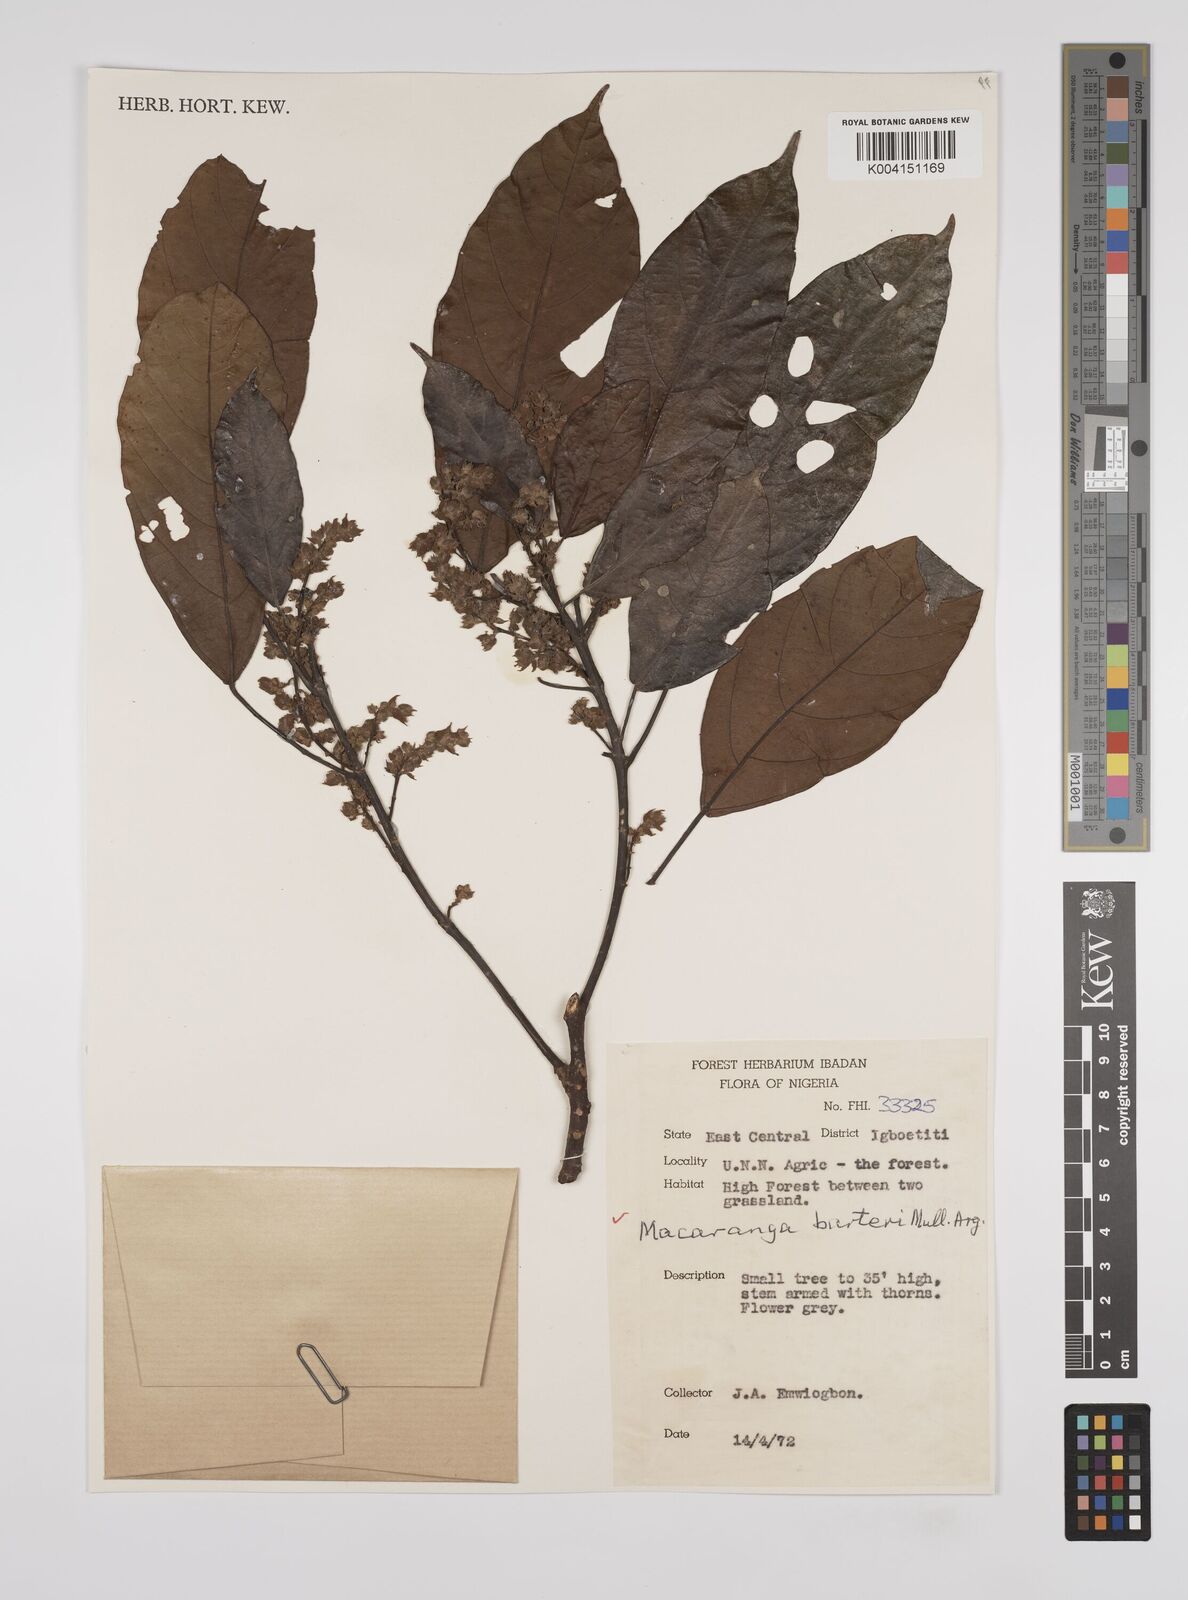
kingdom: Plantae
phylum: Tracheophyta
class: Magnoliopsida
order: Malpighiales
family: Euphorbiaceae
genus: Macaranga
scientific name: Macaranga barteri
